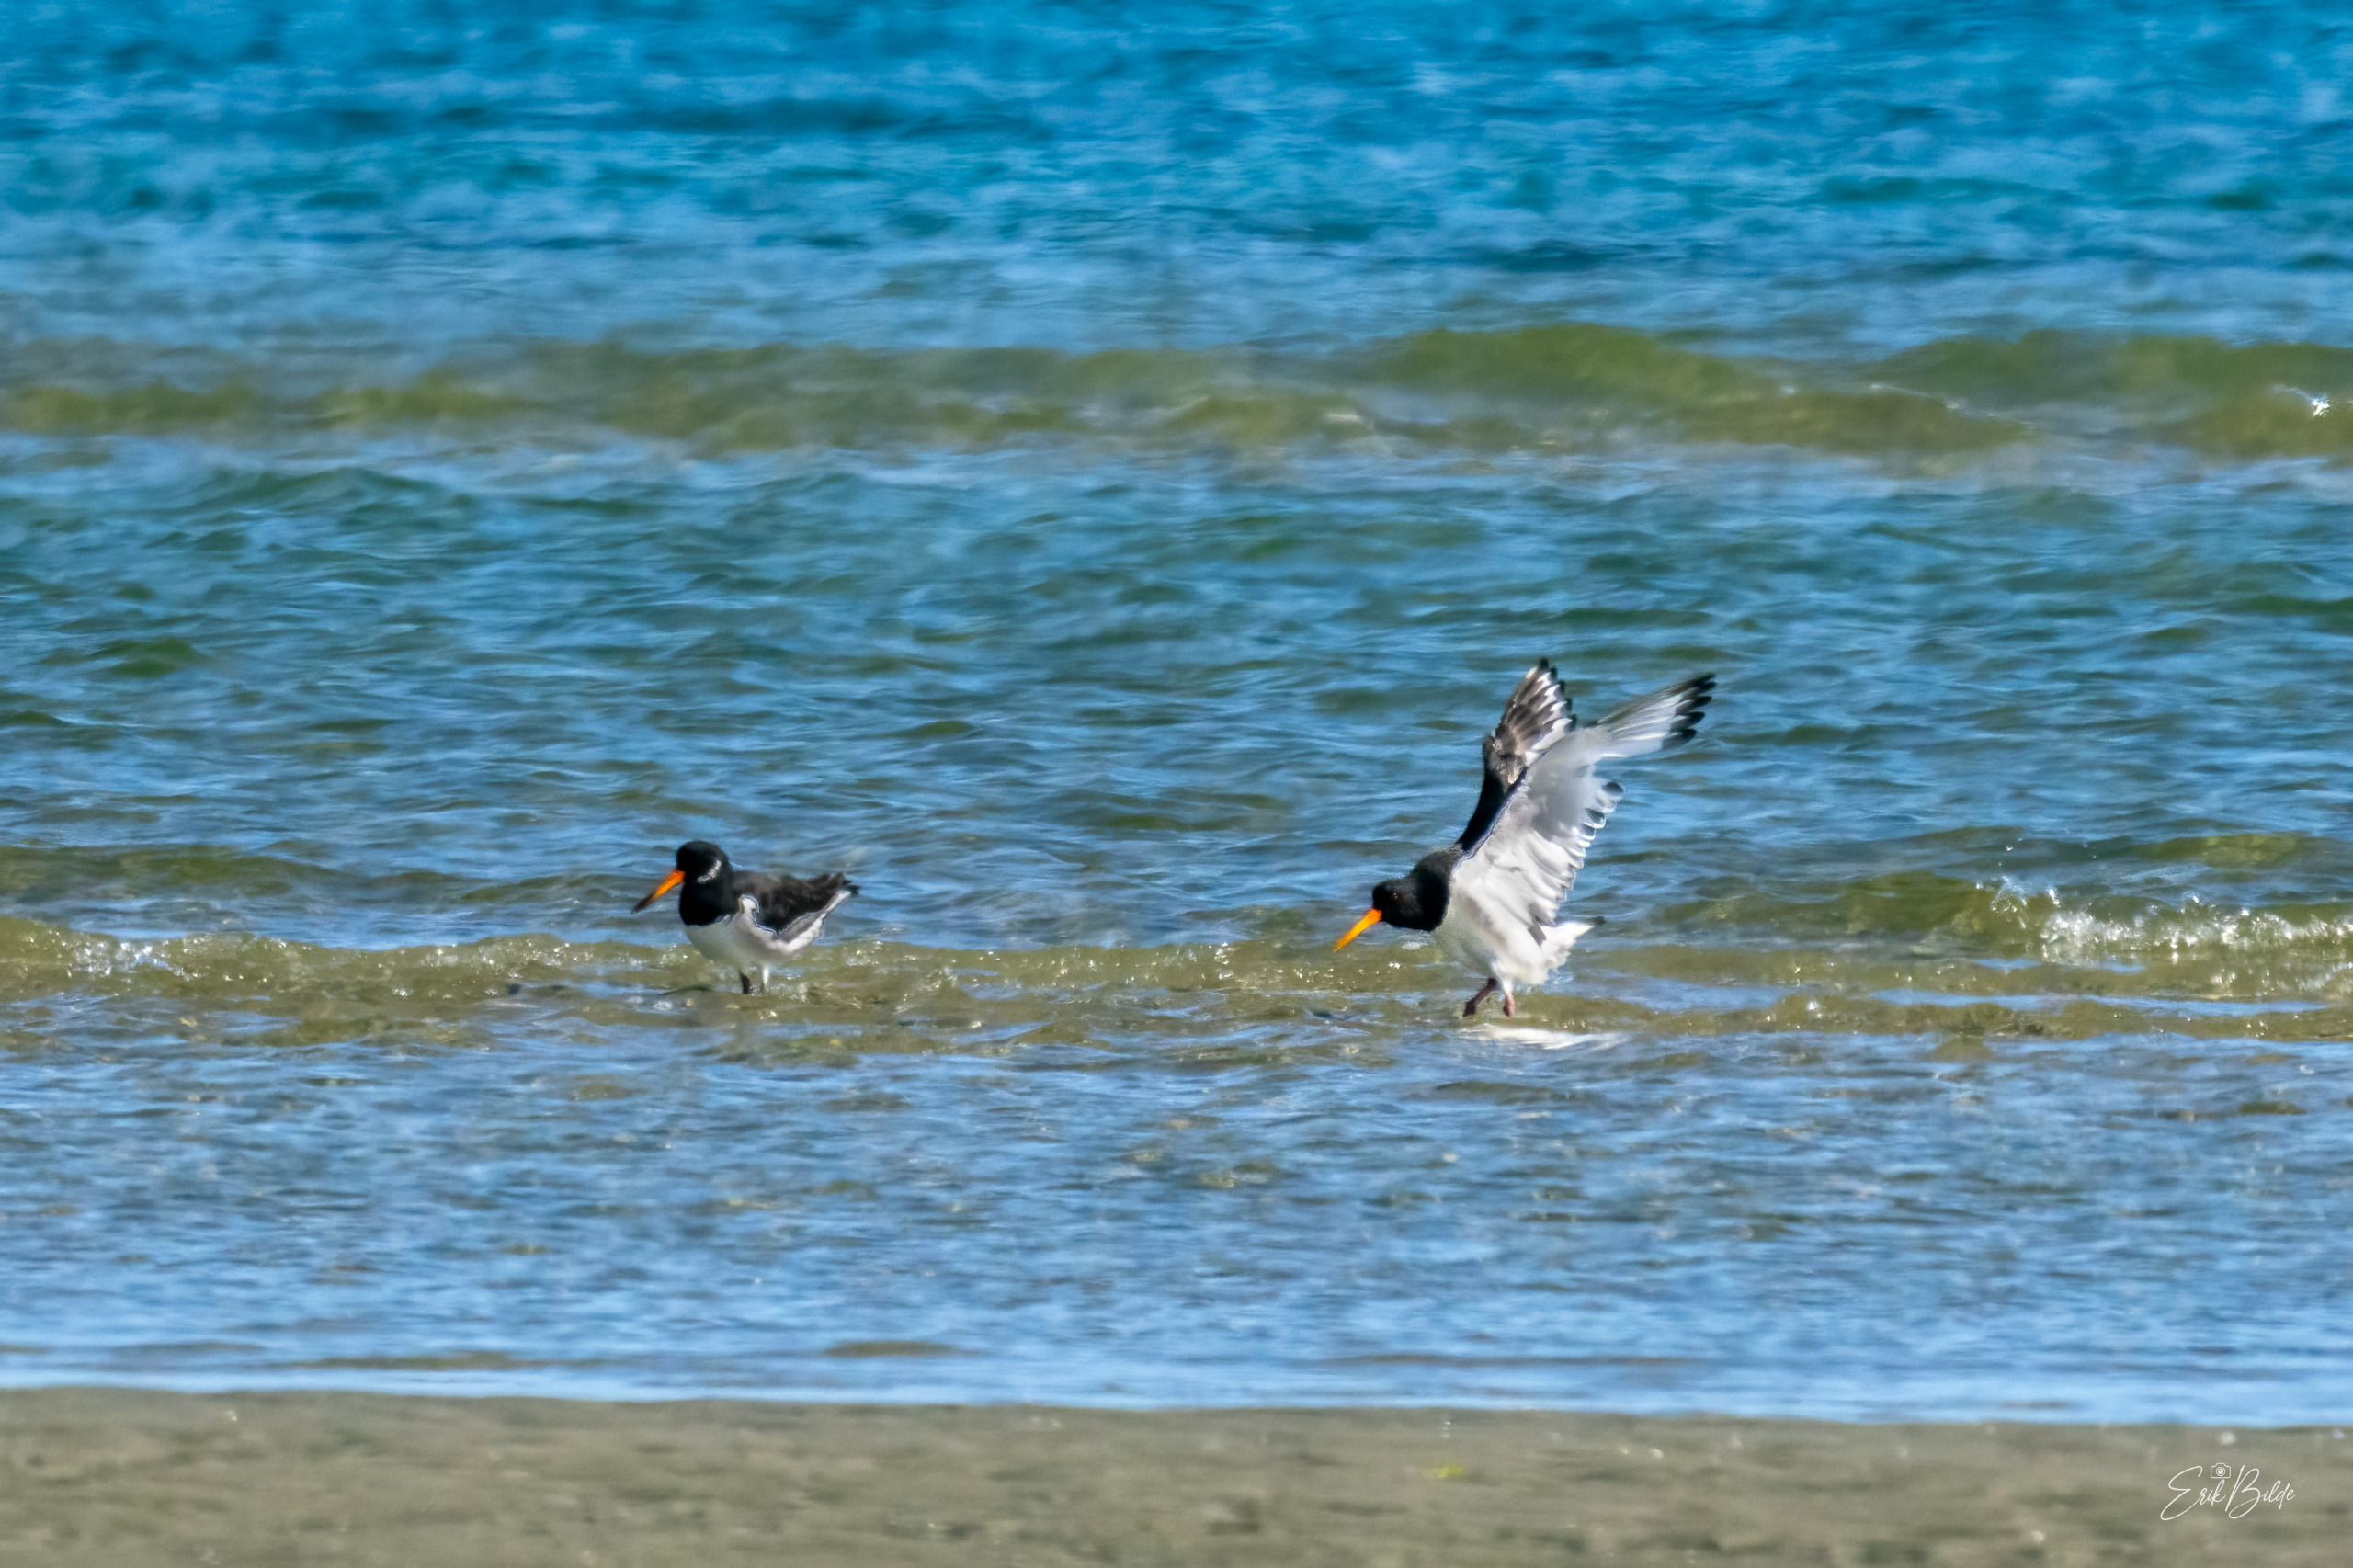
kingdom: Animalia
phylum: Chordata
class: Aves
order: Charadriiformes
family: Haematopodidae
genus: Haematopus
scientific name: Haematopus ostralegus
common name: Strandskade
